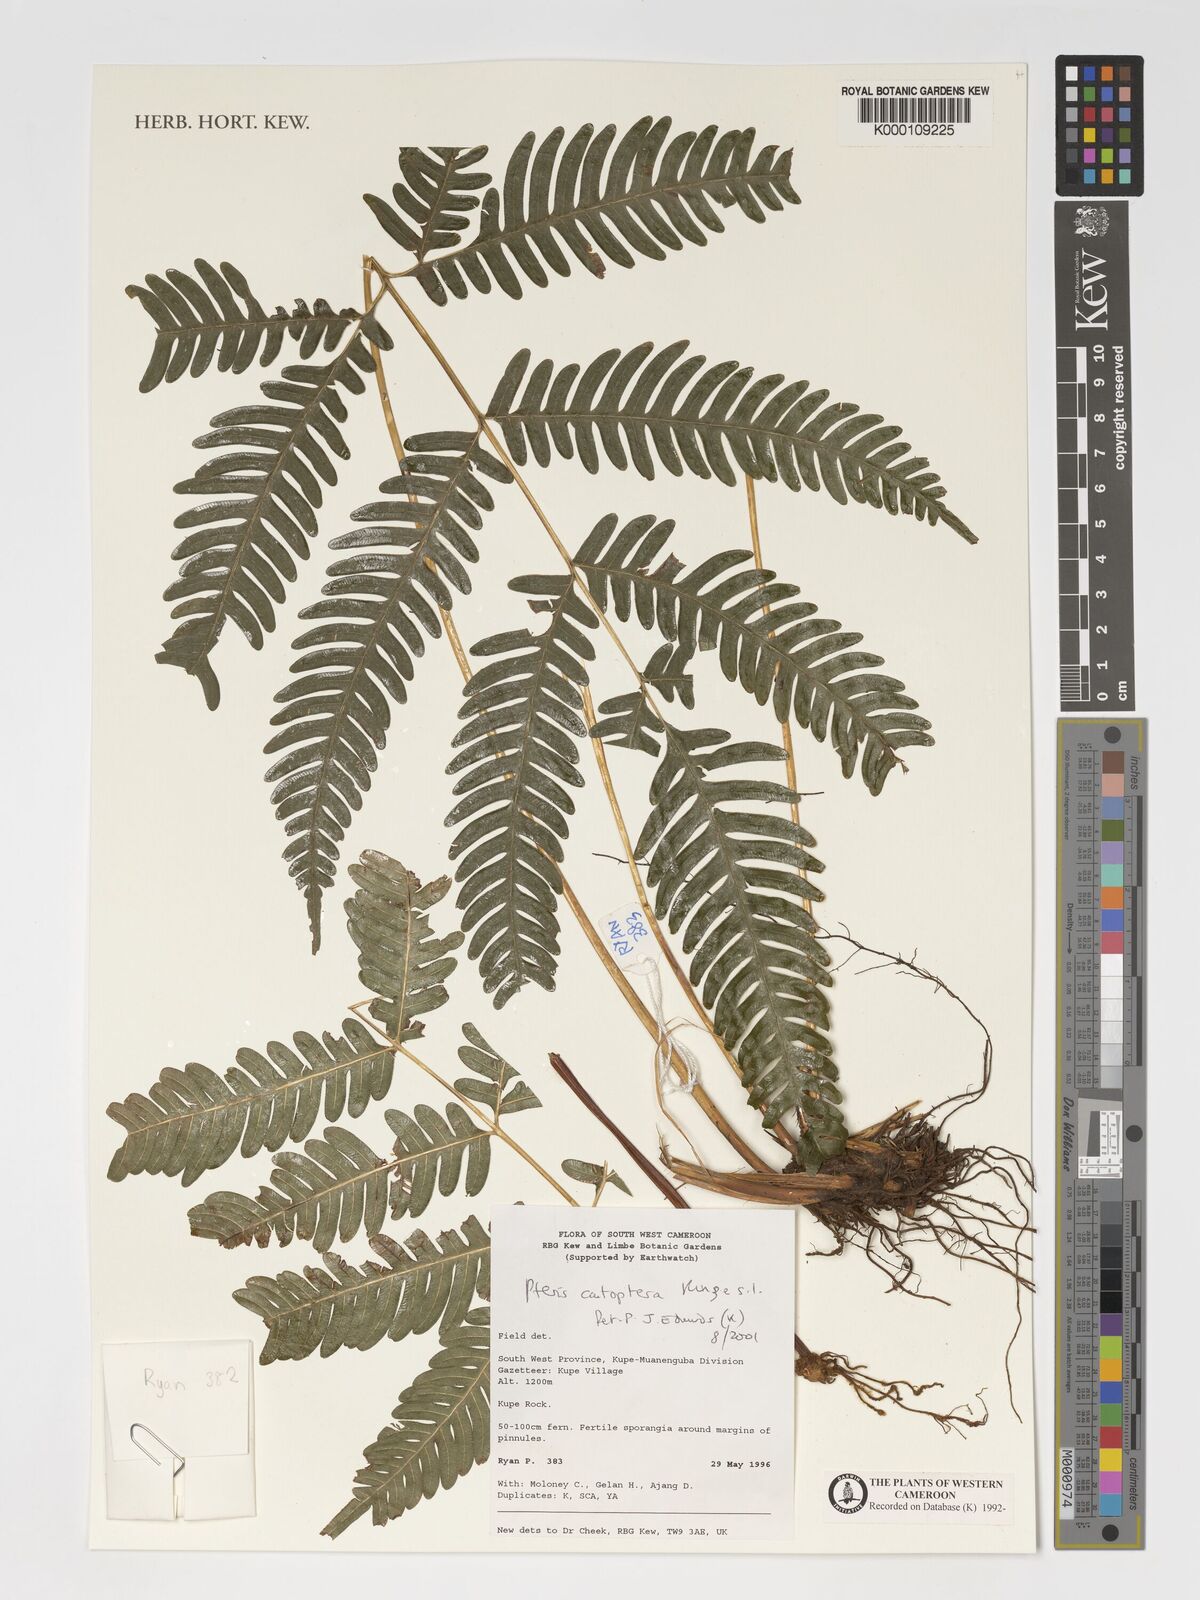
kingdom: Plantae
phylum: Tracheophyta
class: Polypodiopsida
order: Polypodiales
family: Pteridaceae
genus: Pteris
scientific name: Pteris catoptera
